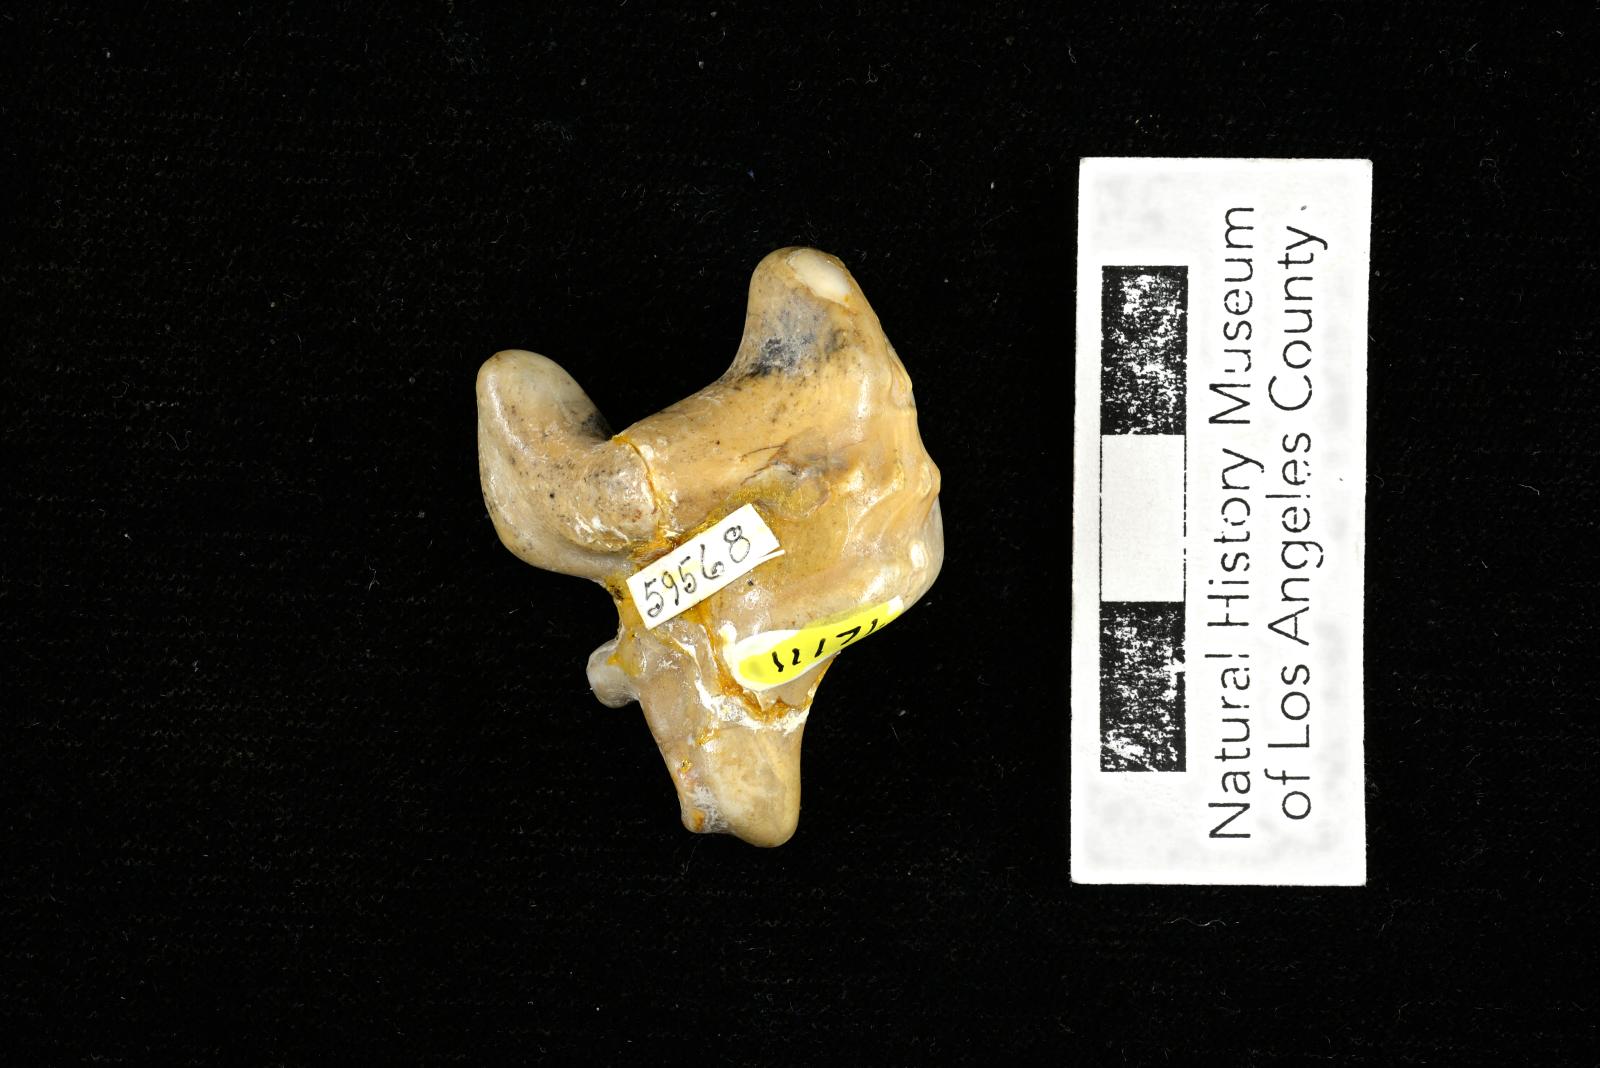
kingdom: Animalia
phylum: Mollusca
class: Gastropoda
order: Littorinimorpha
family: Aporrhaidae
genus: Pyktes
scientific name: Pyktes aspris
